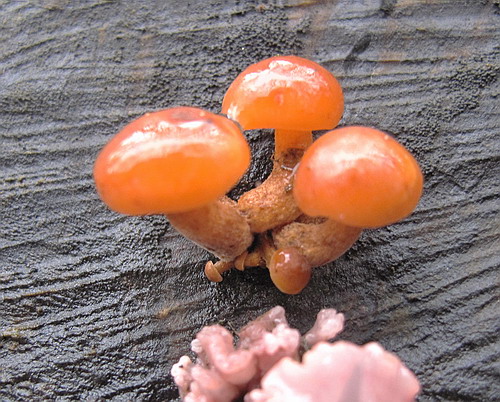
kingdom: Fungi
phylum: Basidiomycota
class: Agaricomycetes
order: Agaricales
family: Physalacriaceae
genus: Flammulina
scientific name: Flammulina velutipes
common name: gul fløjlsfod
